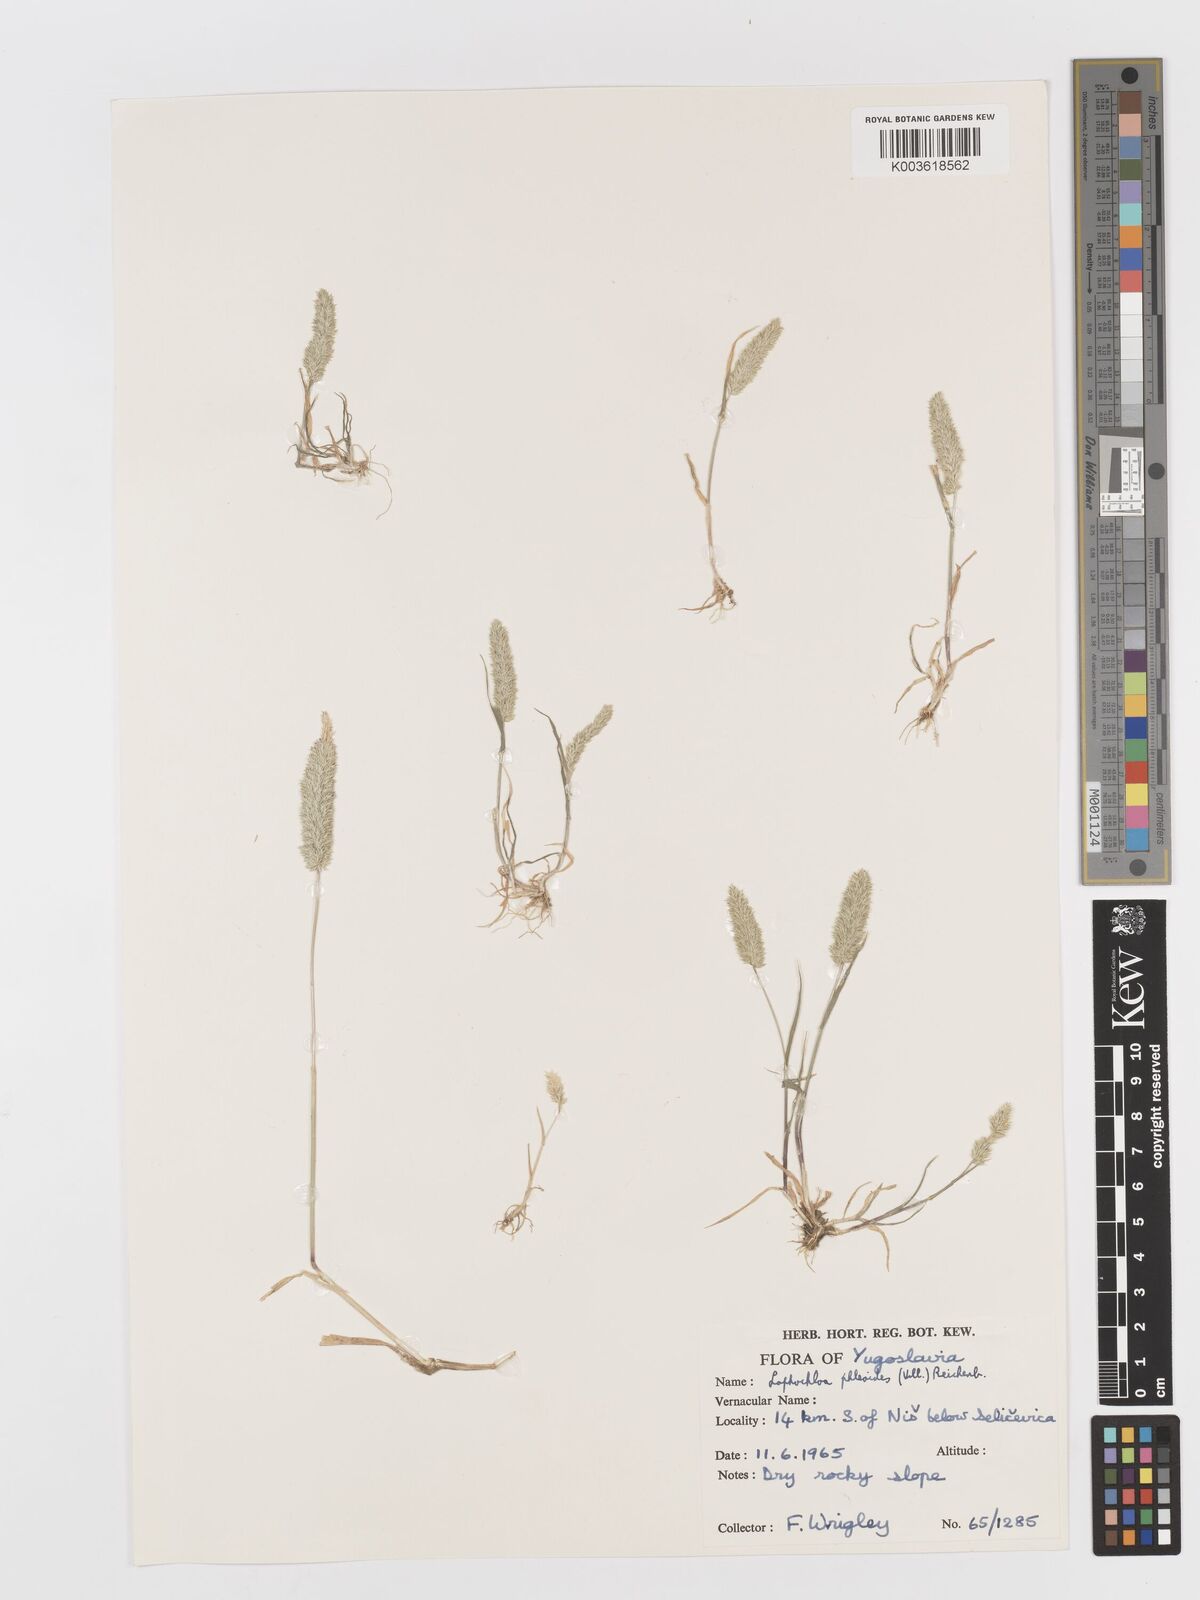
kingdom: Plantae
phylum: Tracheophyta
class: Liliopsida
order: Poales
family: Poaceae
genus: Rostraria
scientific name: Rostraria cristata
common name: Mediterranean hair-grass
